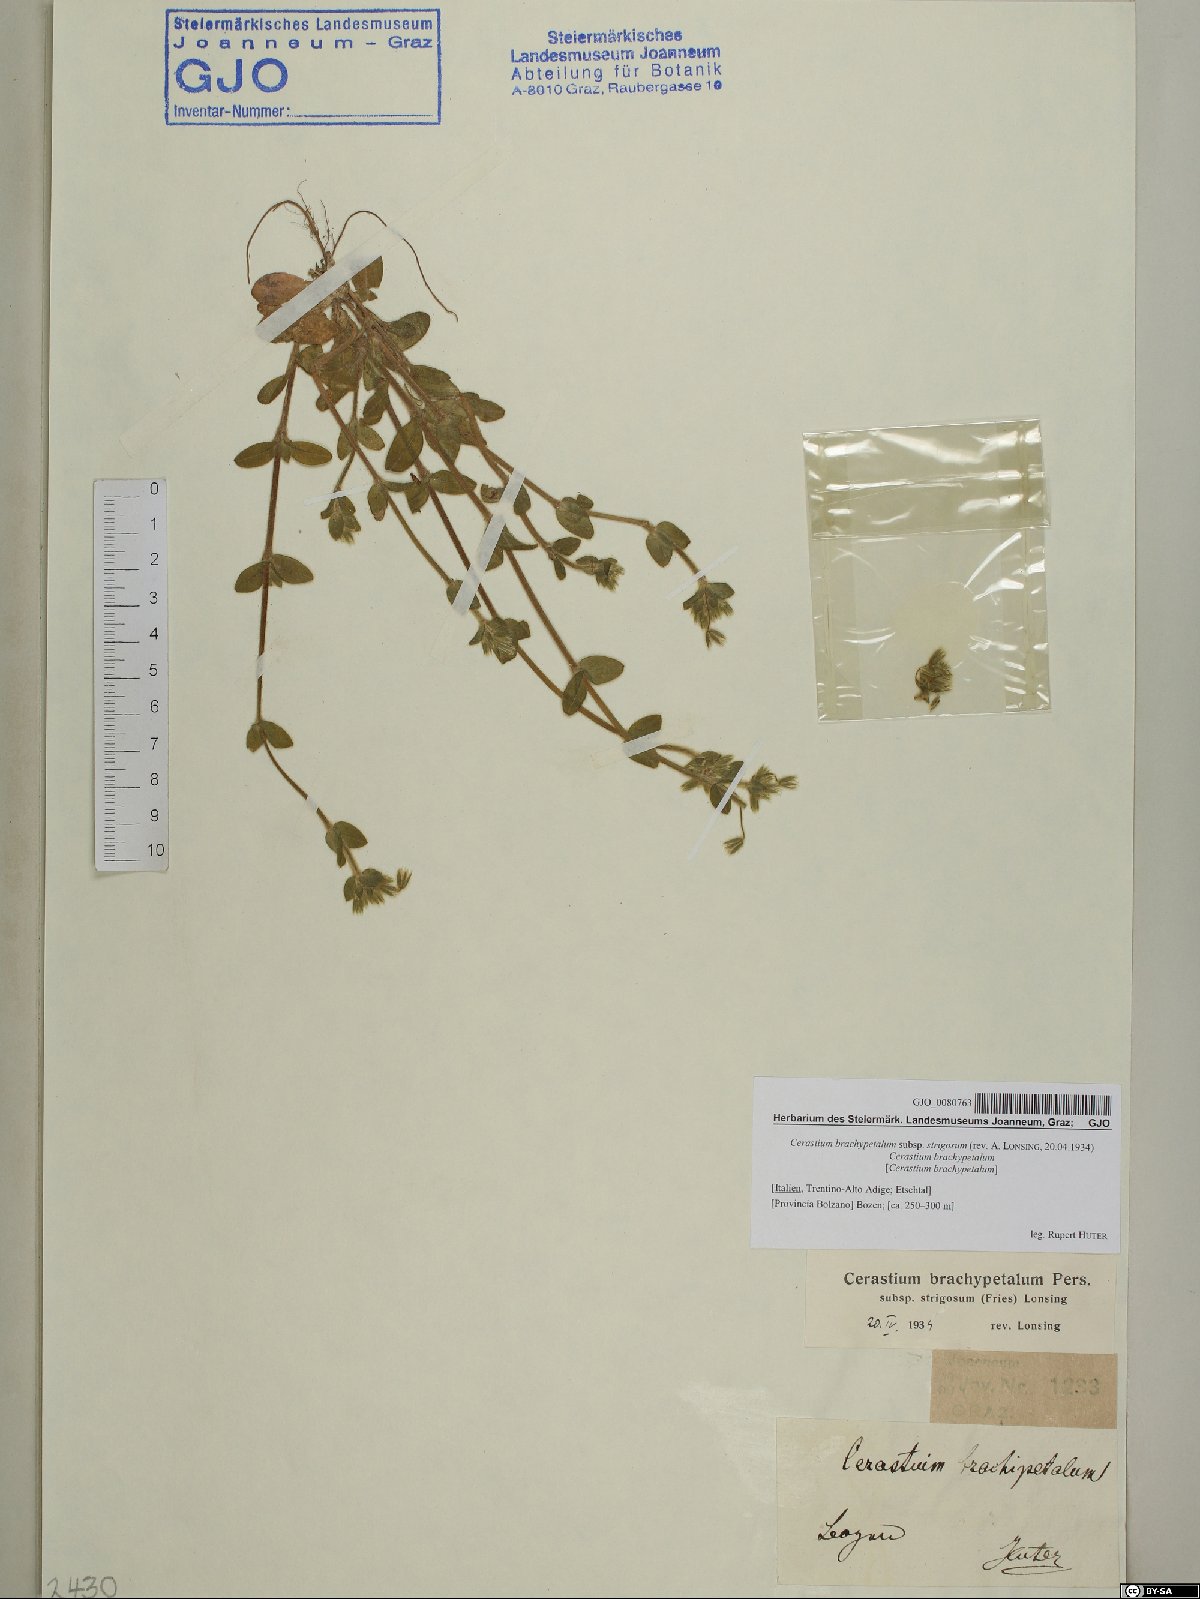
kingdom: Plantae
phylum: Tracheophyta
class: Magnoliopsida
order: Caryophyllales
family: Caryophyllaceae
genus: Cerastium
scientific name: Cerastium brachypetalum
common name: Grey mouse-ear
